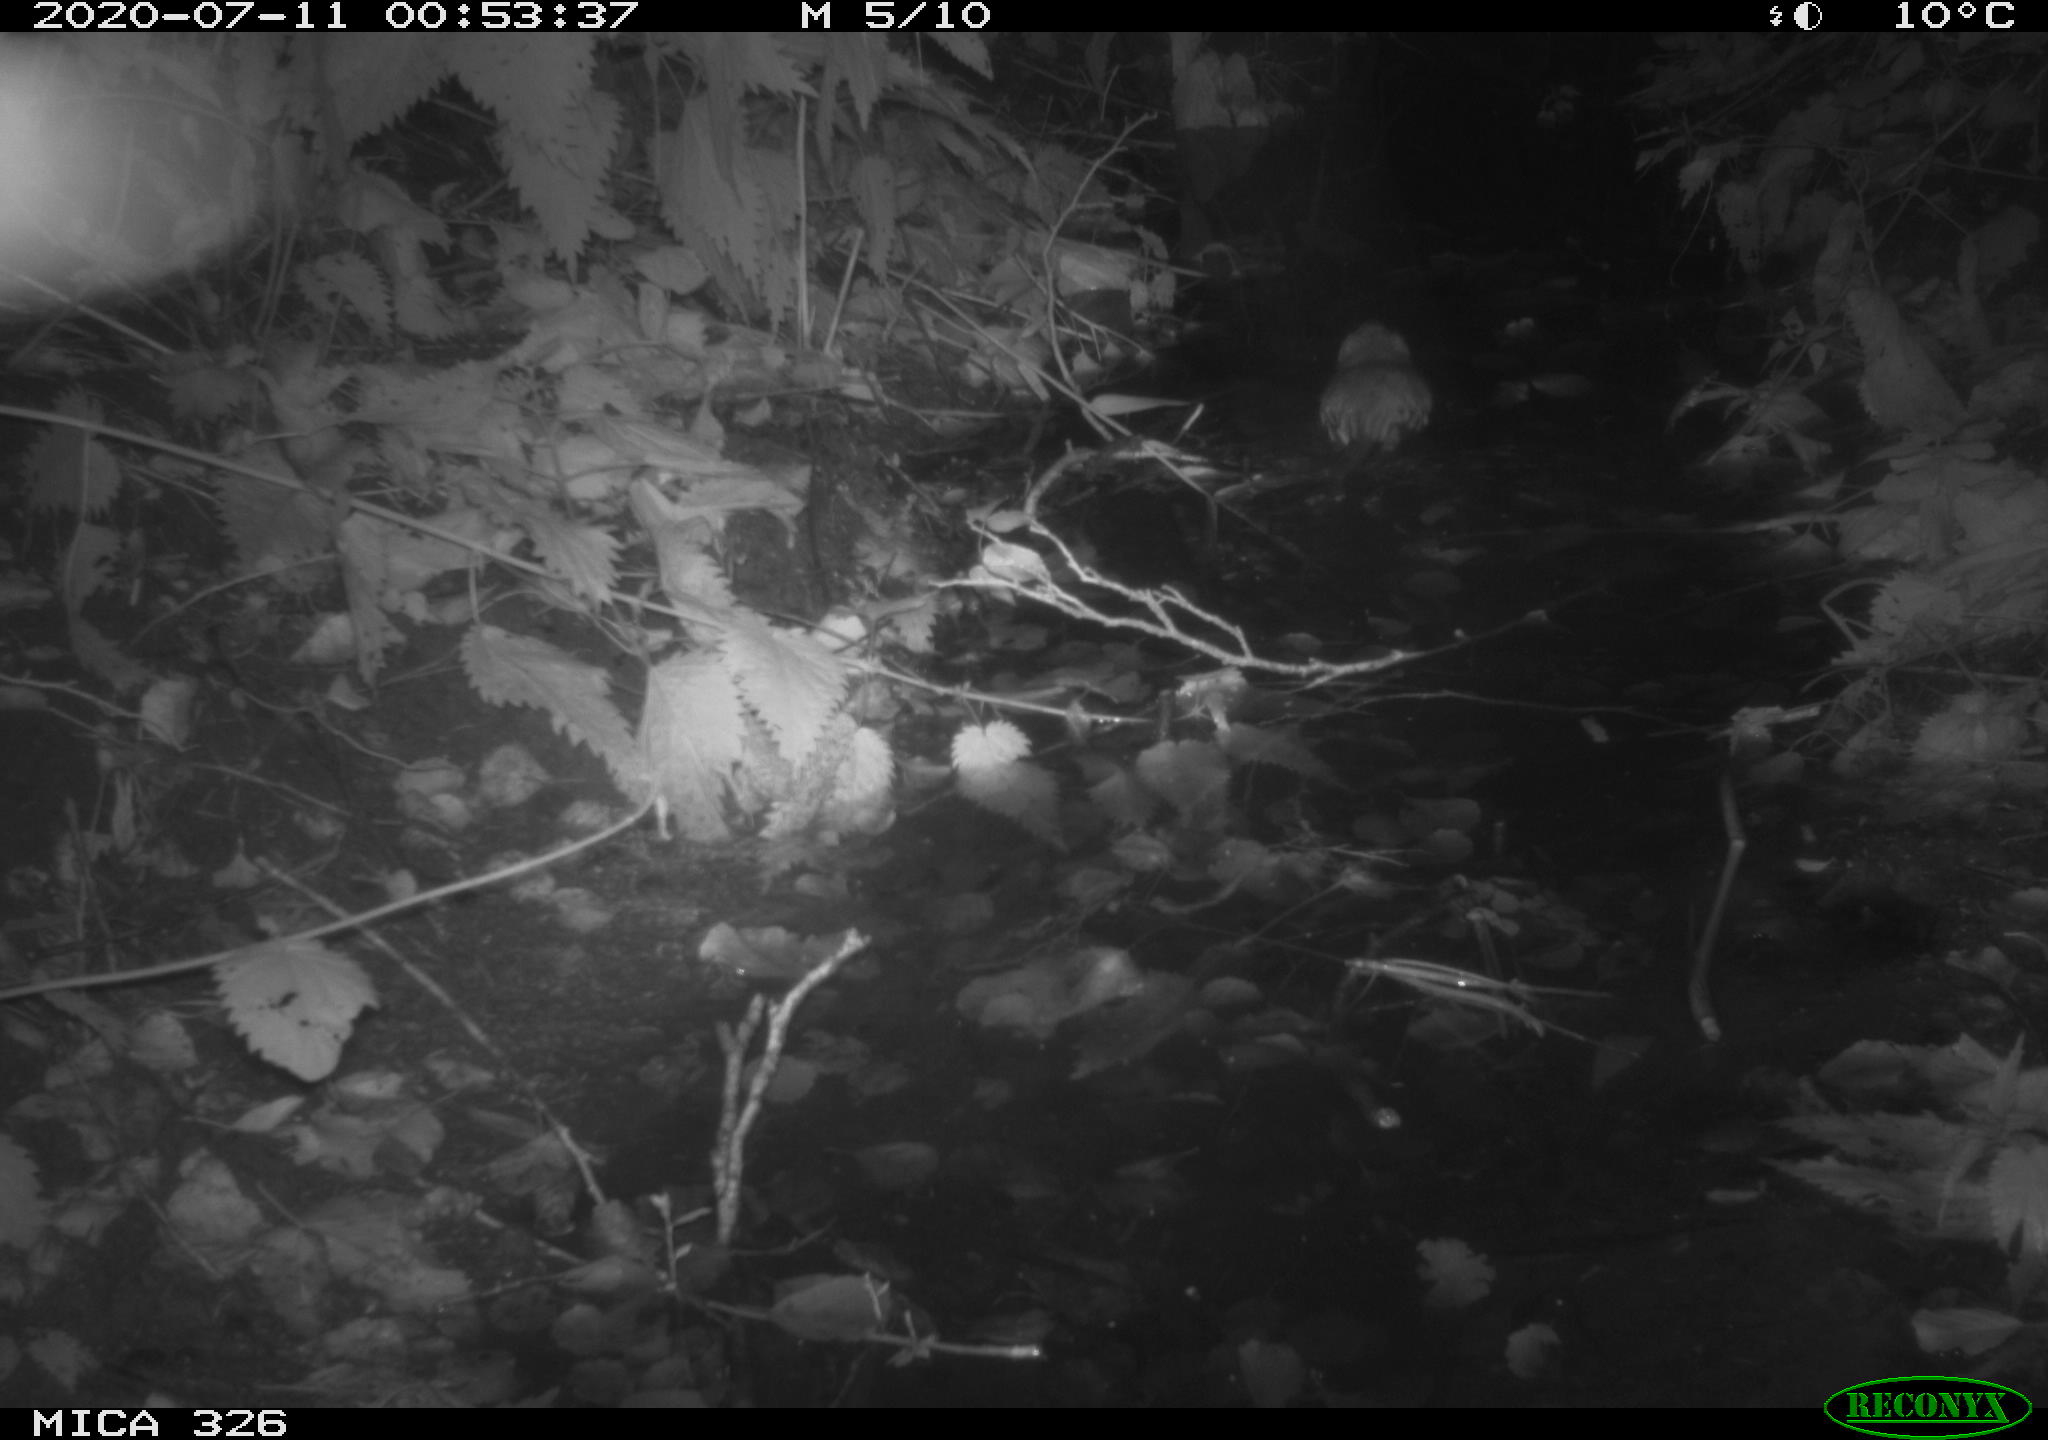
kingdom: Animalia
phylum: Chordata
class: Mammalia
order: Rodentia
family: Cricetidae
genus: Ondatra
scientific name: Ondatra zibethicus
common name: Muskrat
